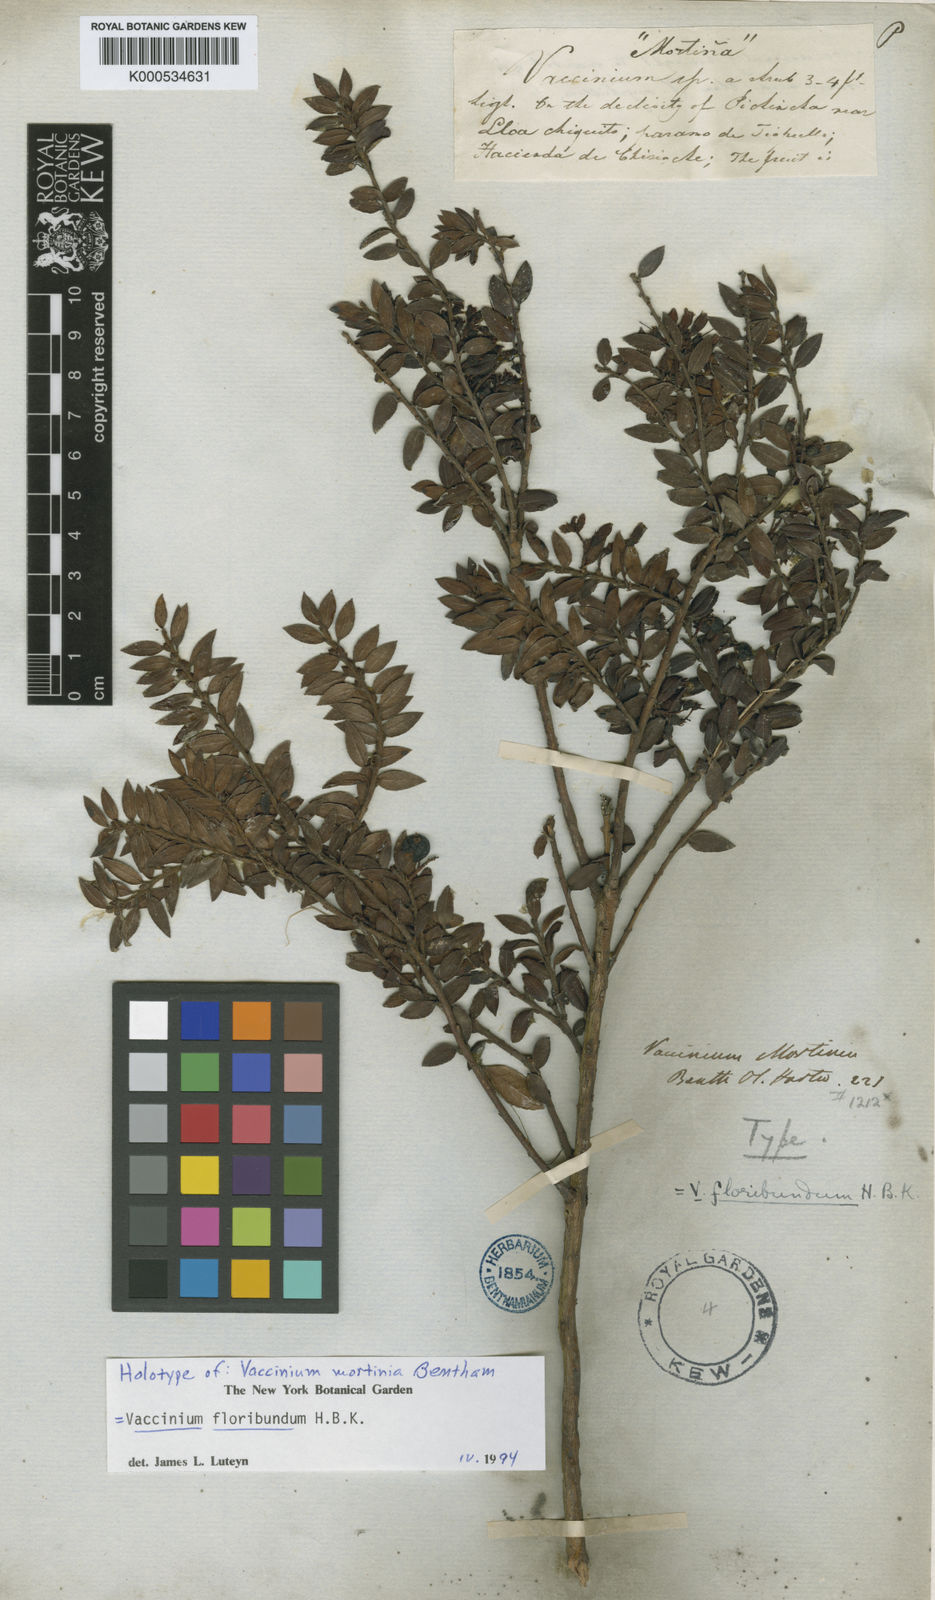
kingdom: Plantae
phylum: Tracheophyta
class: Magnoliopsida
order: Ericales
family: Ericaceae
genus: Vaccinium
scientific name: Vaccinium floribundum
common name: Colombian blueberry
